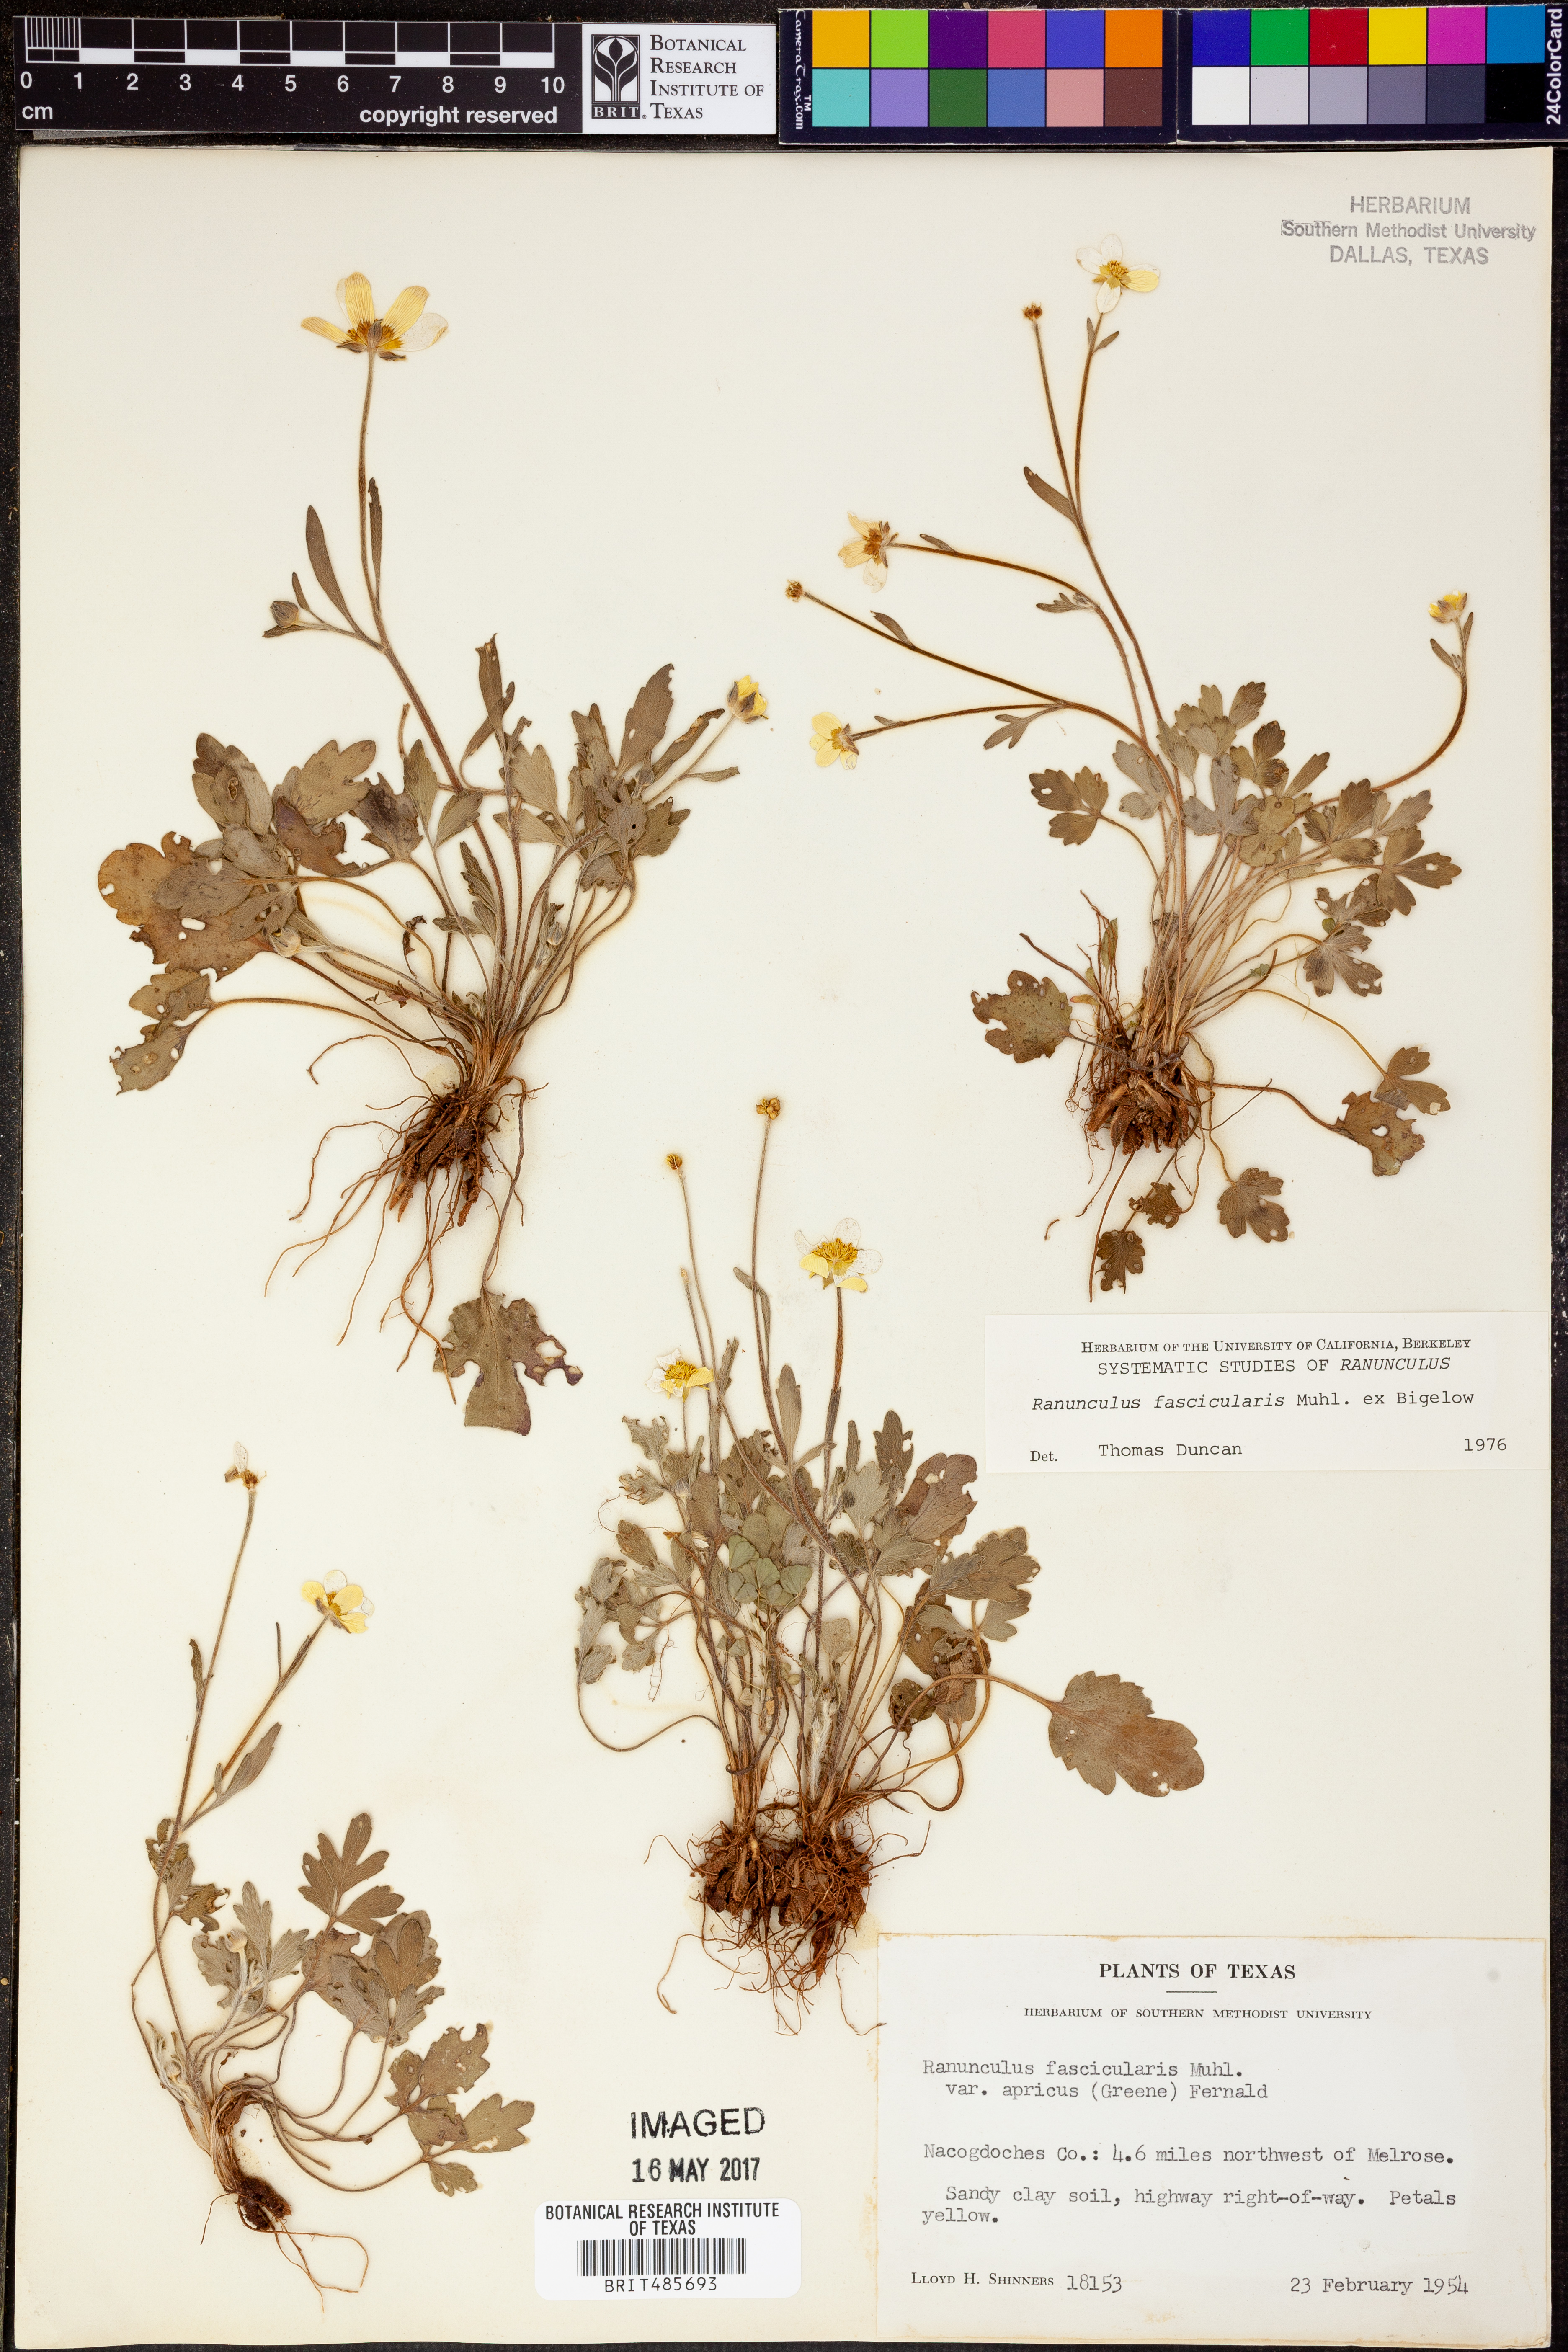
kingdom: Plantae
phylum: Tracheophyta
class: Magnoliopsida
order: Ranunculales
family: Ranunculaceae
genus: Ranunculus
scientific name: Ranunculus fascicularis
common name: Early buttercup
